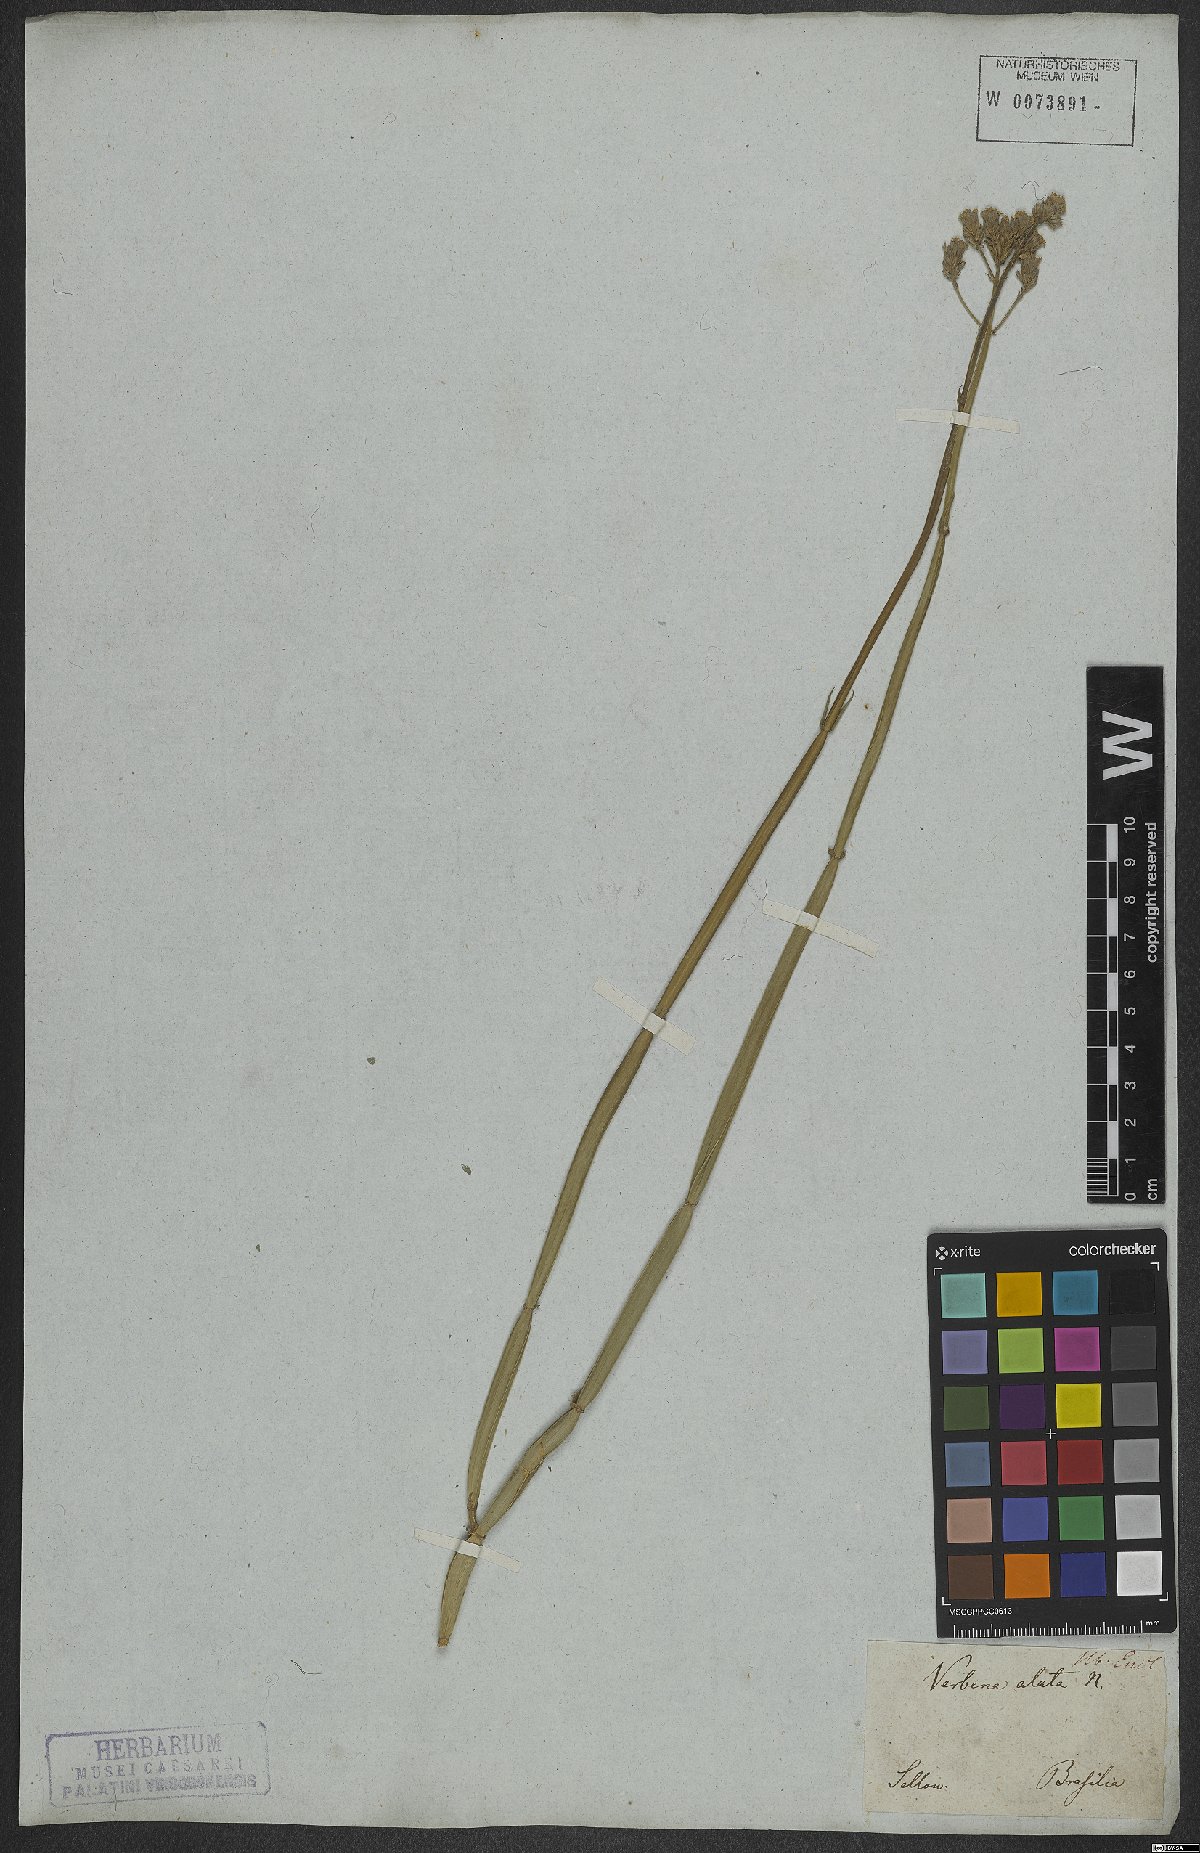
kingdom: Plantae
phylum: Tracheophyta
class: Magnoliopsida
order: Lamiales
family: Verbenaceae
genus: Verbena
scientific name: Verbena alata
